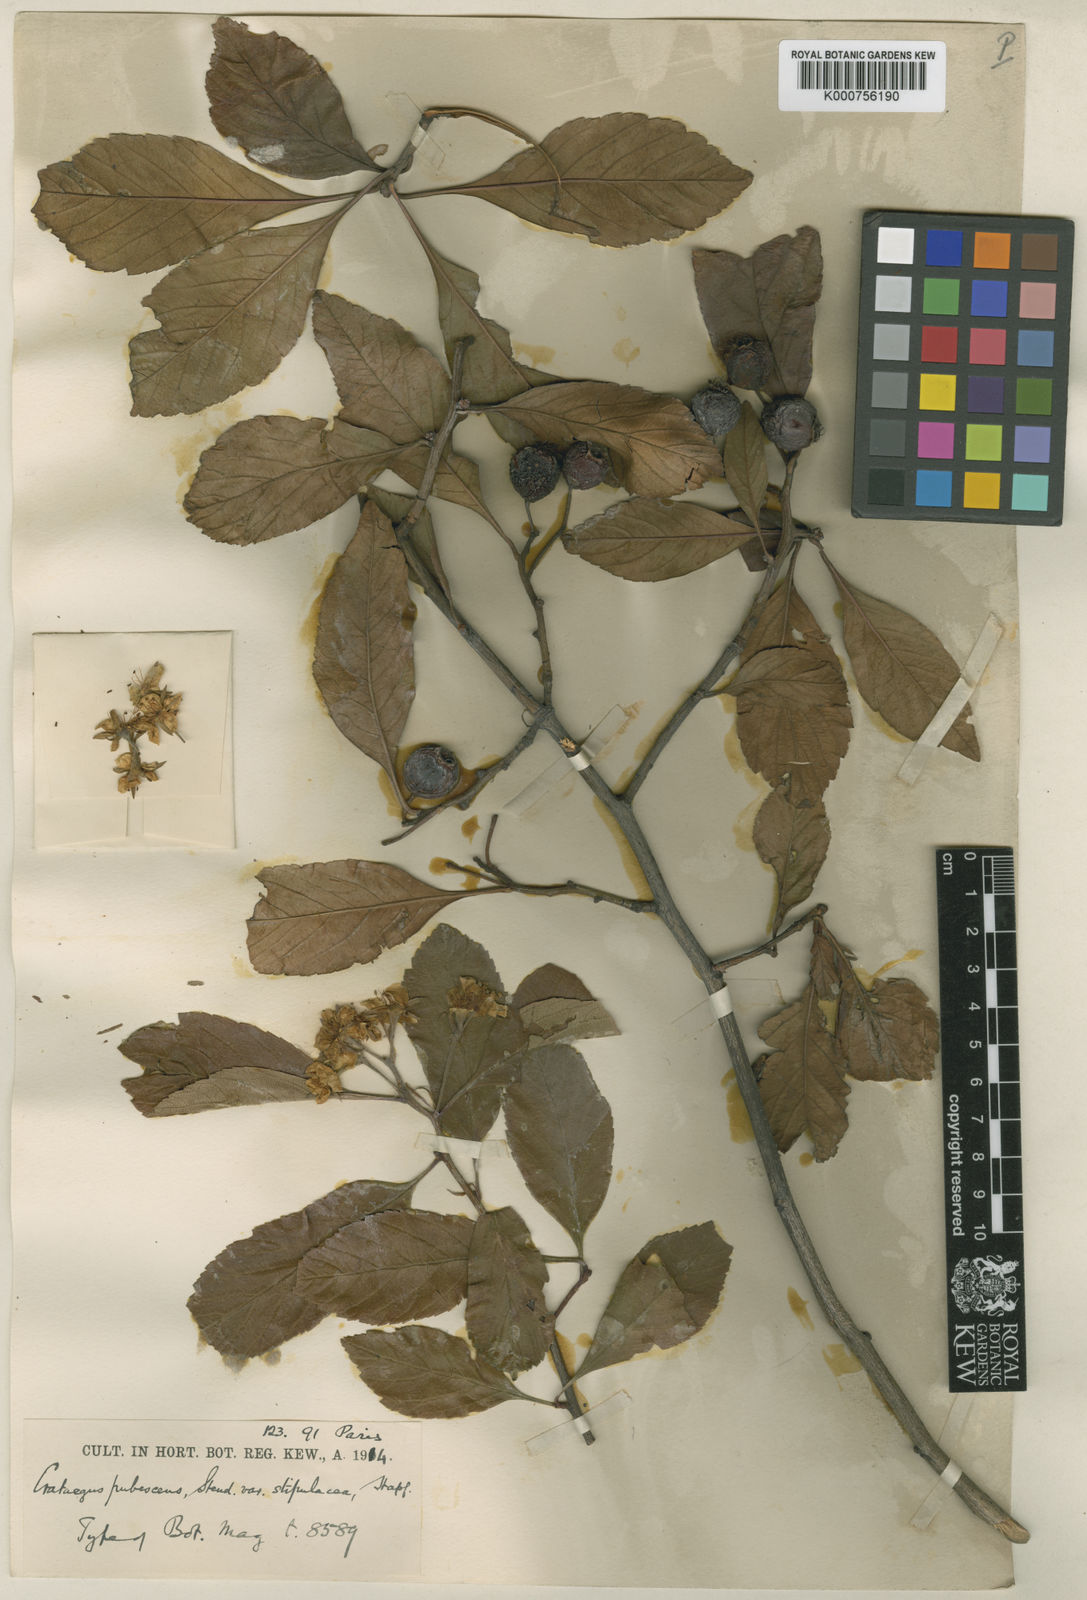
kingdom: Plantae
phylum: Tracheophyta
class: Magnoliopsida
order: Rosales
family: Rosaceae
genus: Crataegus
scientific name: Crataegus gracilior
